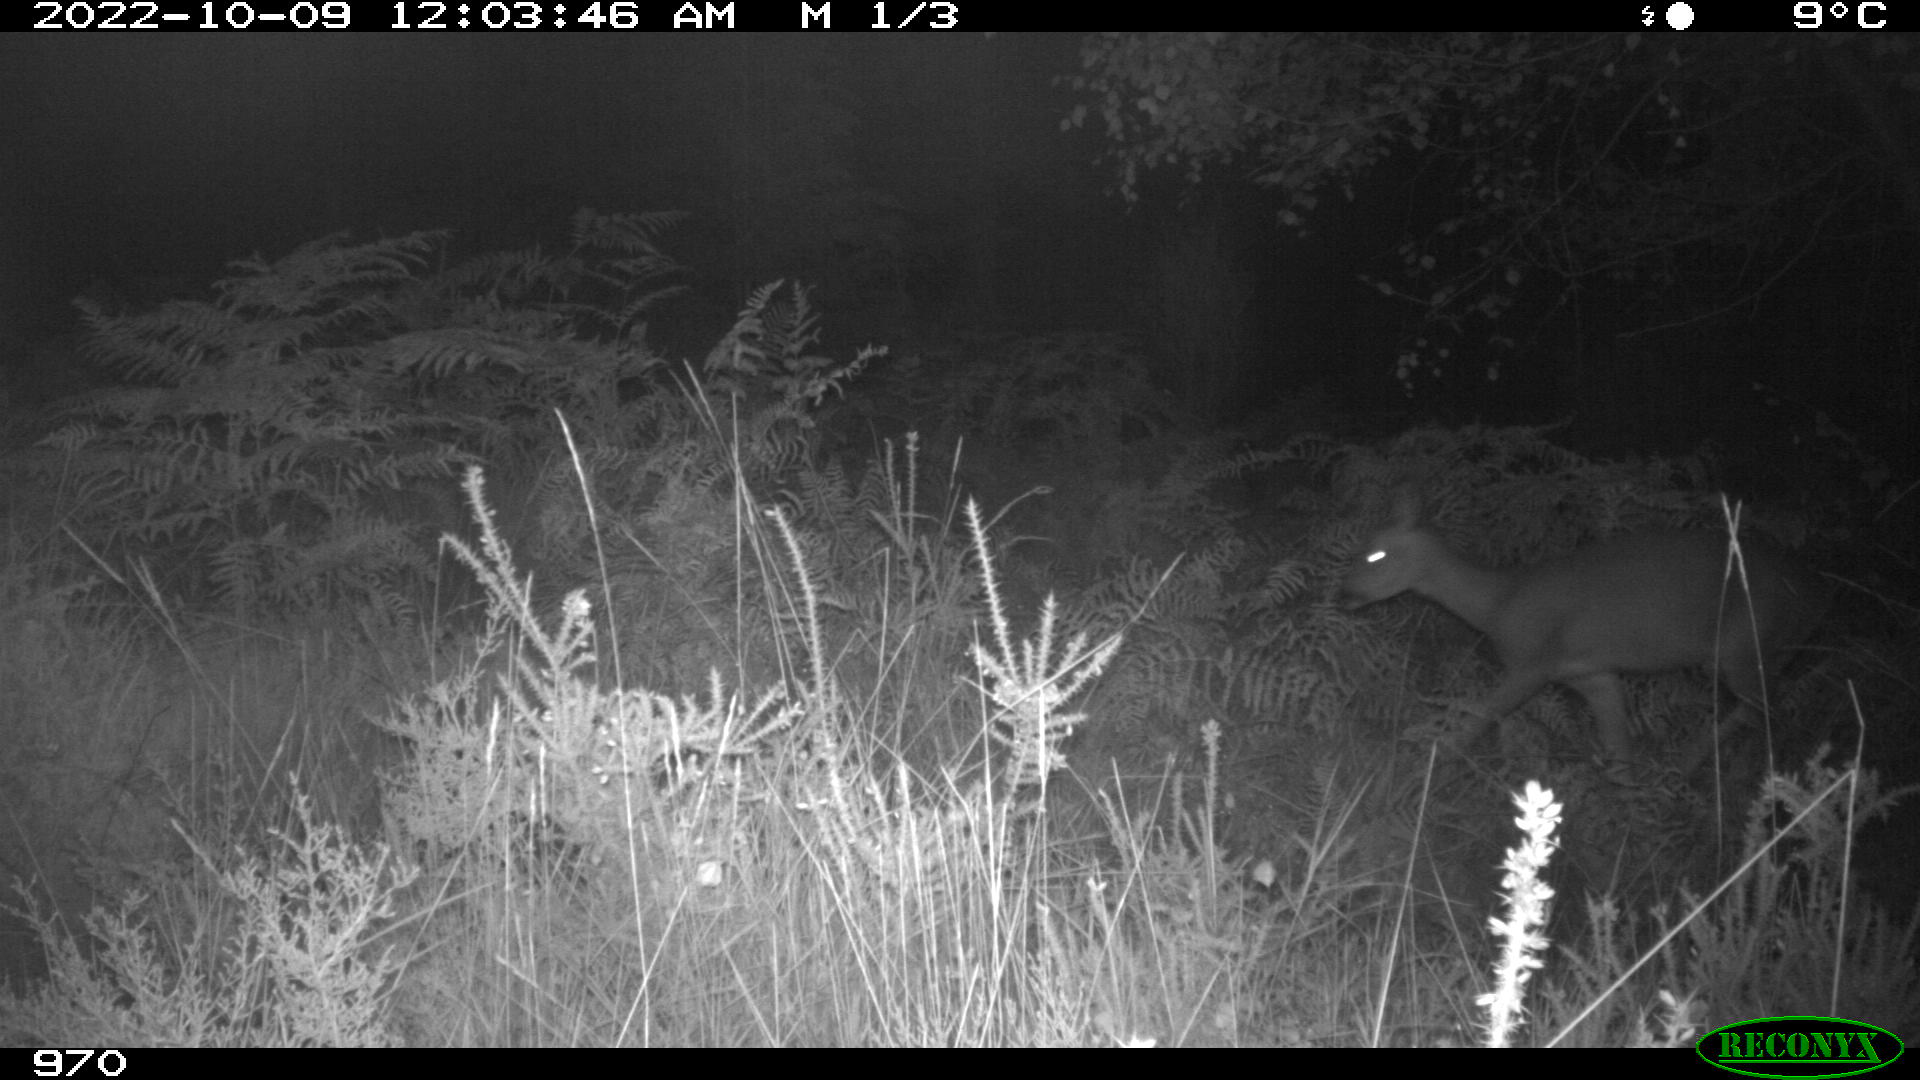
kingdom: Animalia
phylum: Chordata
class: Mammalia
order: Artiodactyla
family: Cervidae
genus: Capreolus
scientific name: Capreolus capreolus
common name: Western roe deer
